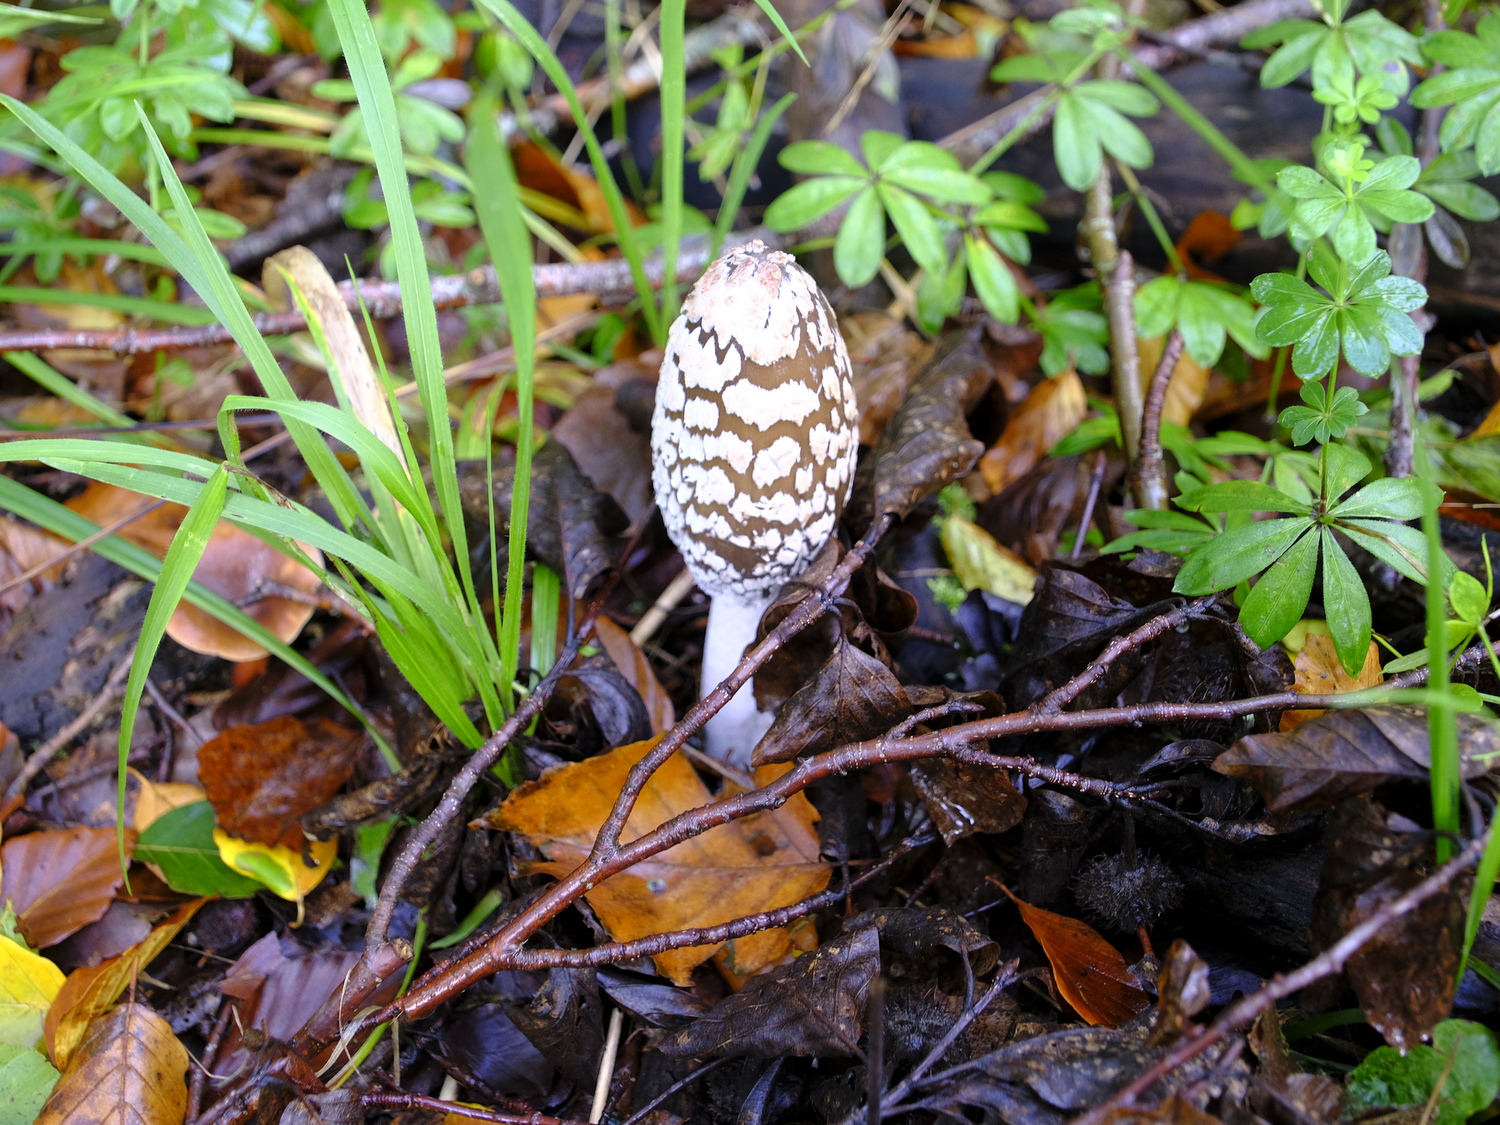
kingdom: Fungi
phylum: Basidiomycota
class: Agaricomycetes
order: Agaricales
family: Psathyrellaceae
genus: Coprinopsis
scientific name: Coprinopsis picacea
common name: skade-blækhat
